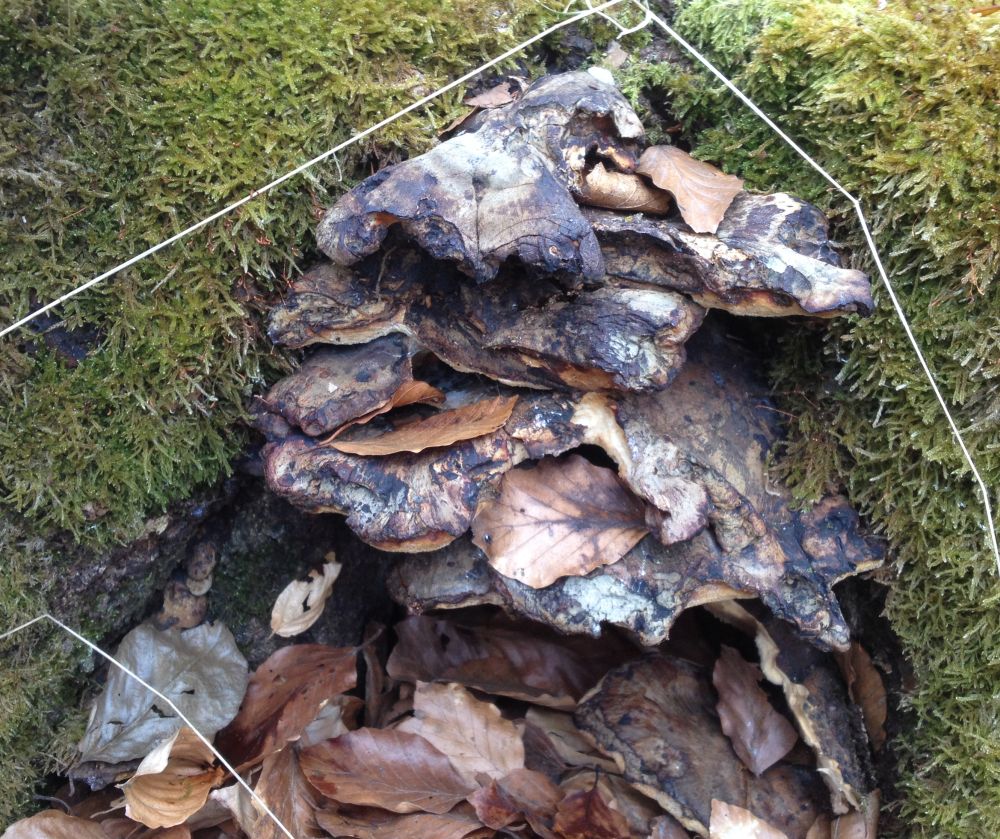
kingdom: Fungi
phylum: Basidiomycota
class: Agaricomycetes
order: Polyporales
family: Ischnodermataceae
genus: Ischnoderma
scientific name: Ischnoderma resinosum
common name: løv-tjæreporesvamp
